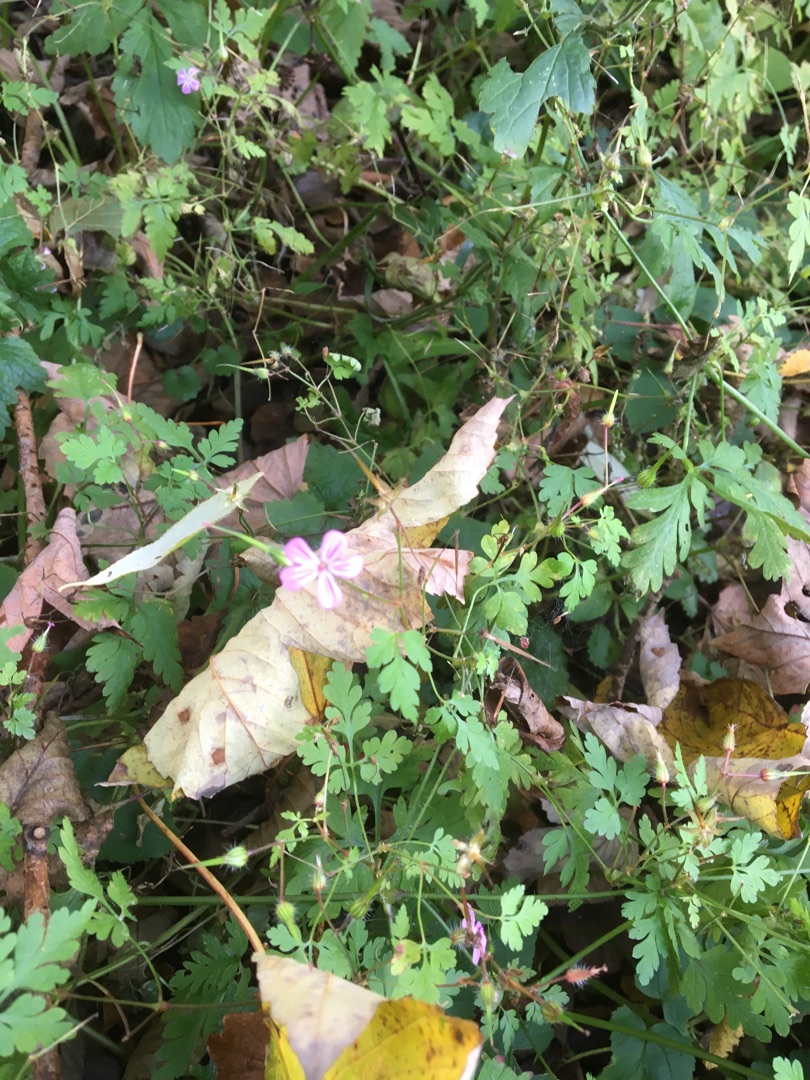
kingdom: Plantae
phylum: Tracheophyta
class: Magnoliopsida
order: Geraniales
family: Geraniaceae
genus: Geranium
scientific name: Geranium robertianum
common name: Stinkende storkenæb
